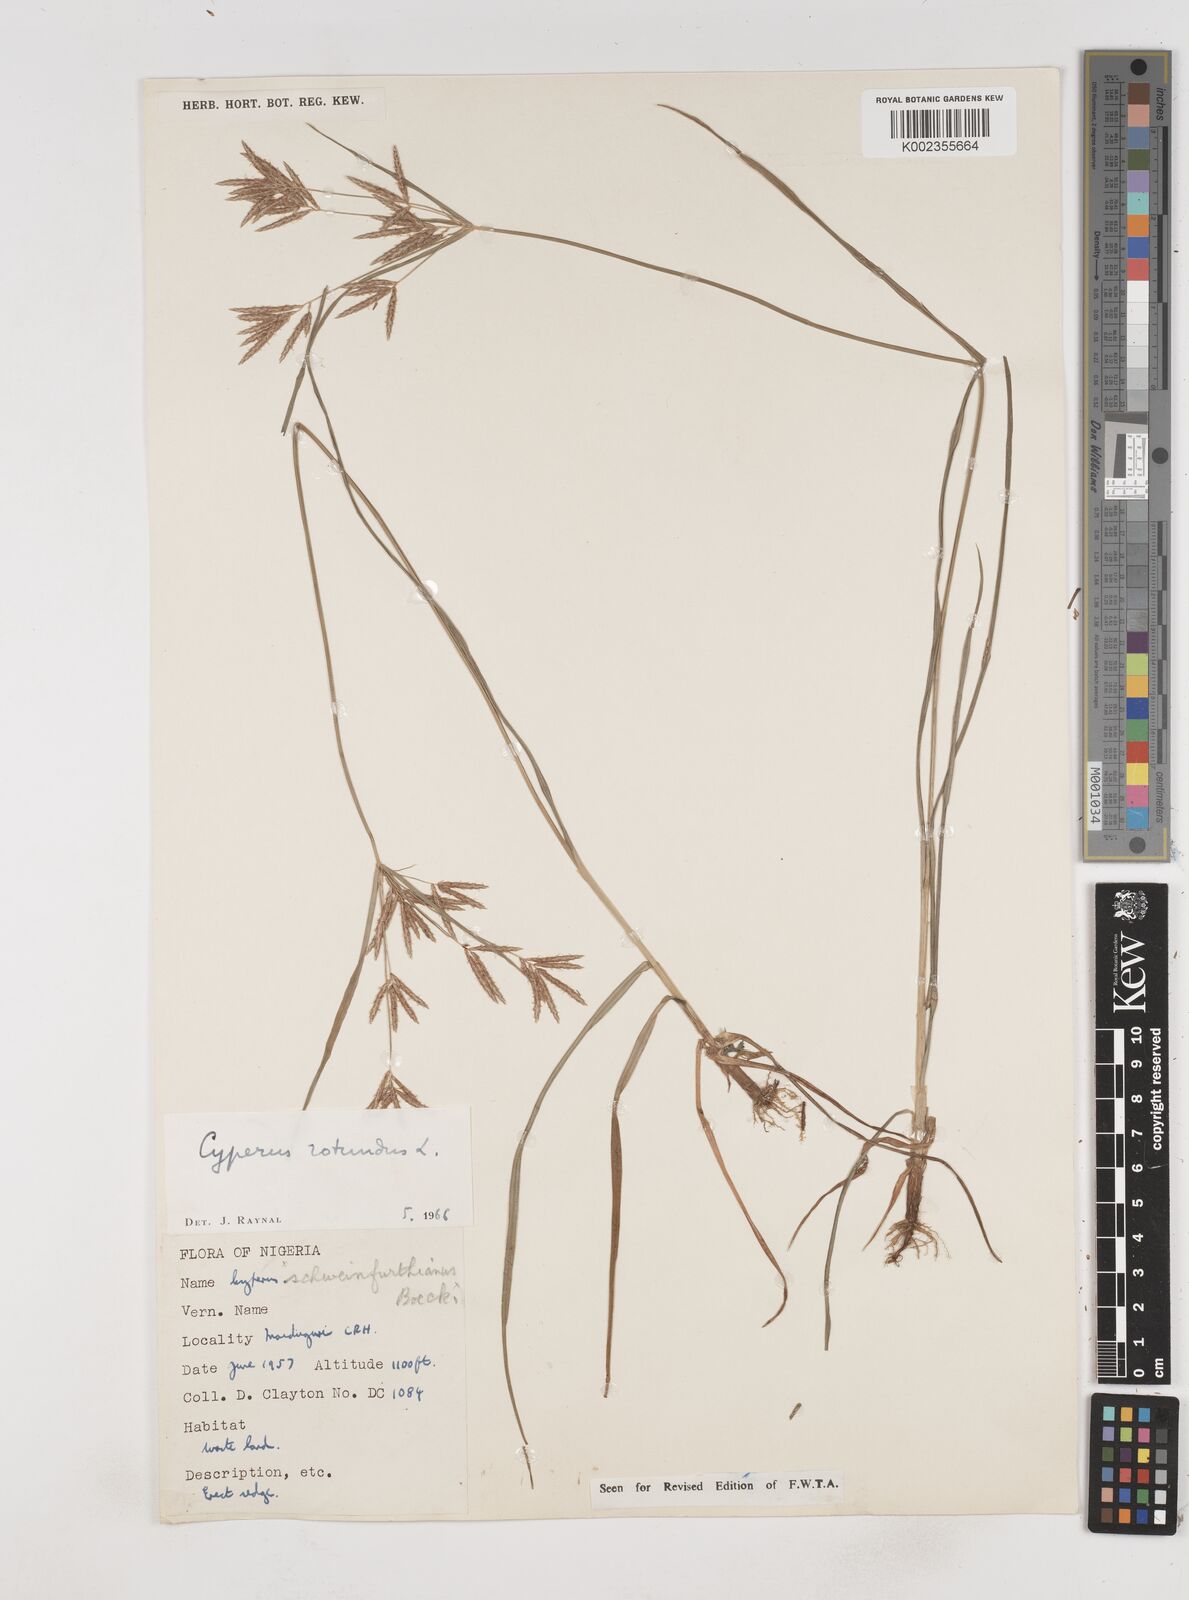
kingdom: Plantae
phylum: Tracheophyta
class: Liliopsida
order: Poales
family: Cyperaceae
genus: Cyperus
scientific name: Cyperus rotundus
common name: Nutgrass
